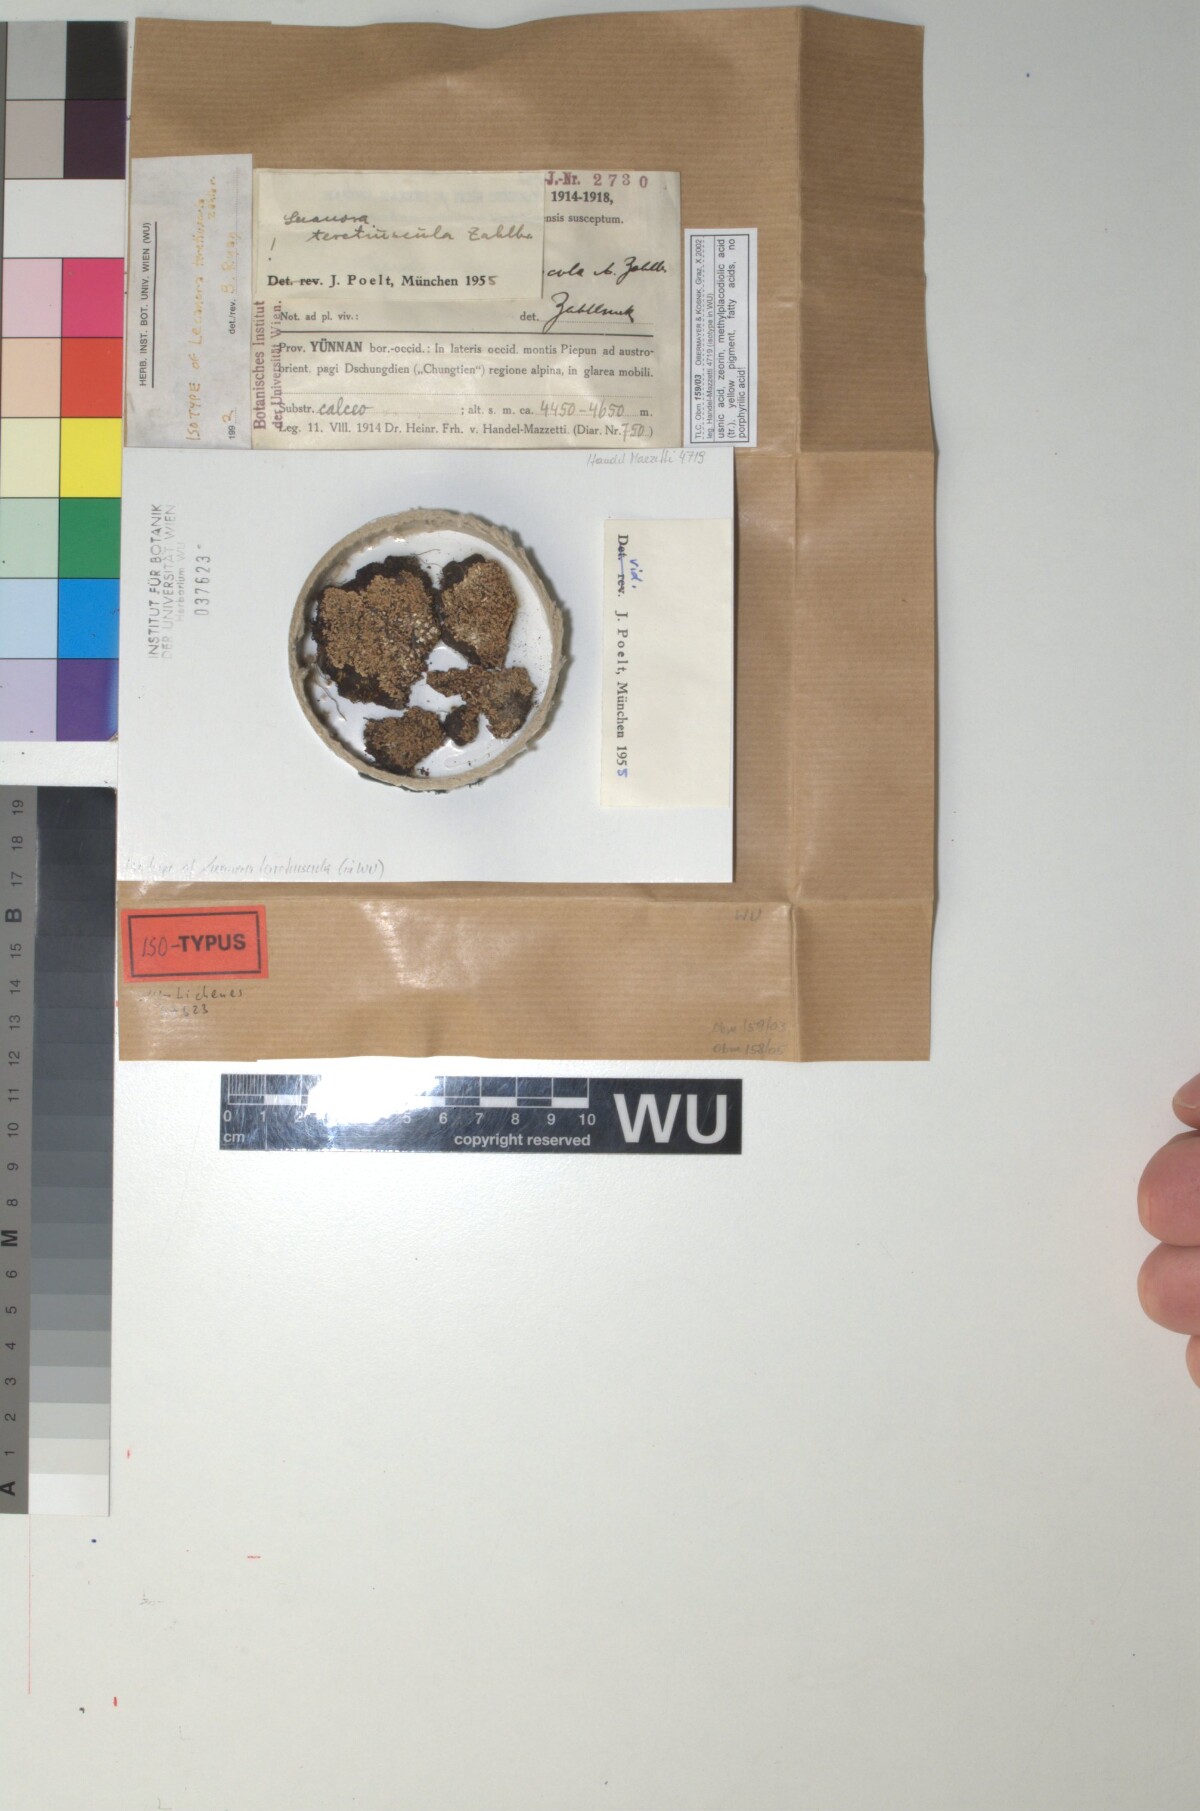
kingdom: Fungi
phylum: Ascomycota
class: Lecanoromycetes
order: Lecanorales
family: Lecanoraceae
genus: Lecanora
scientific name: Lecanora geophila
